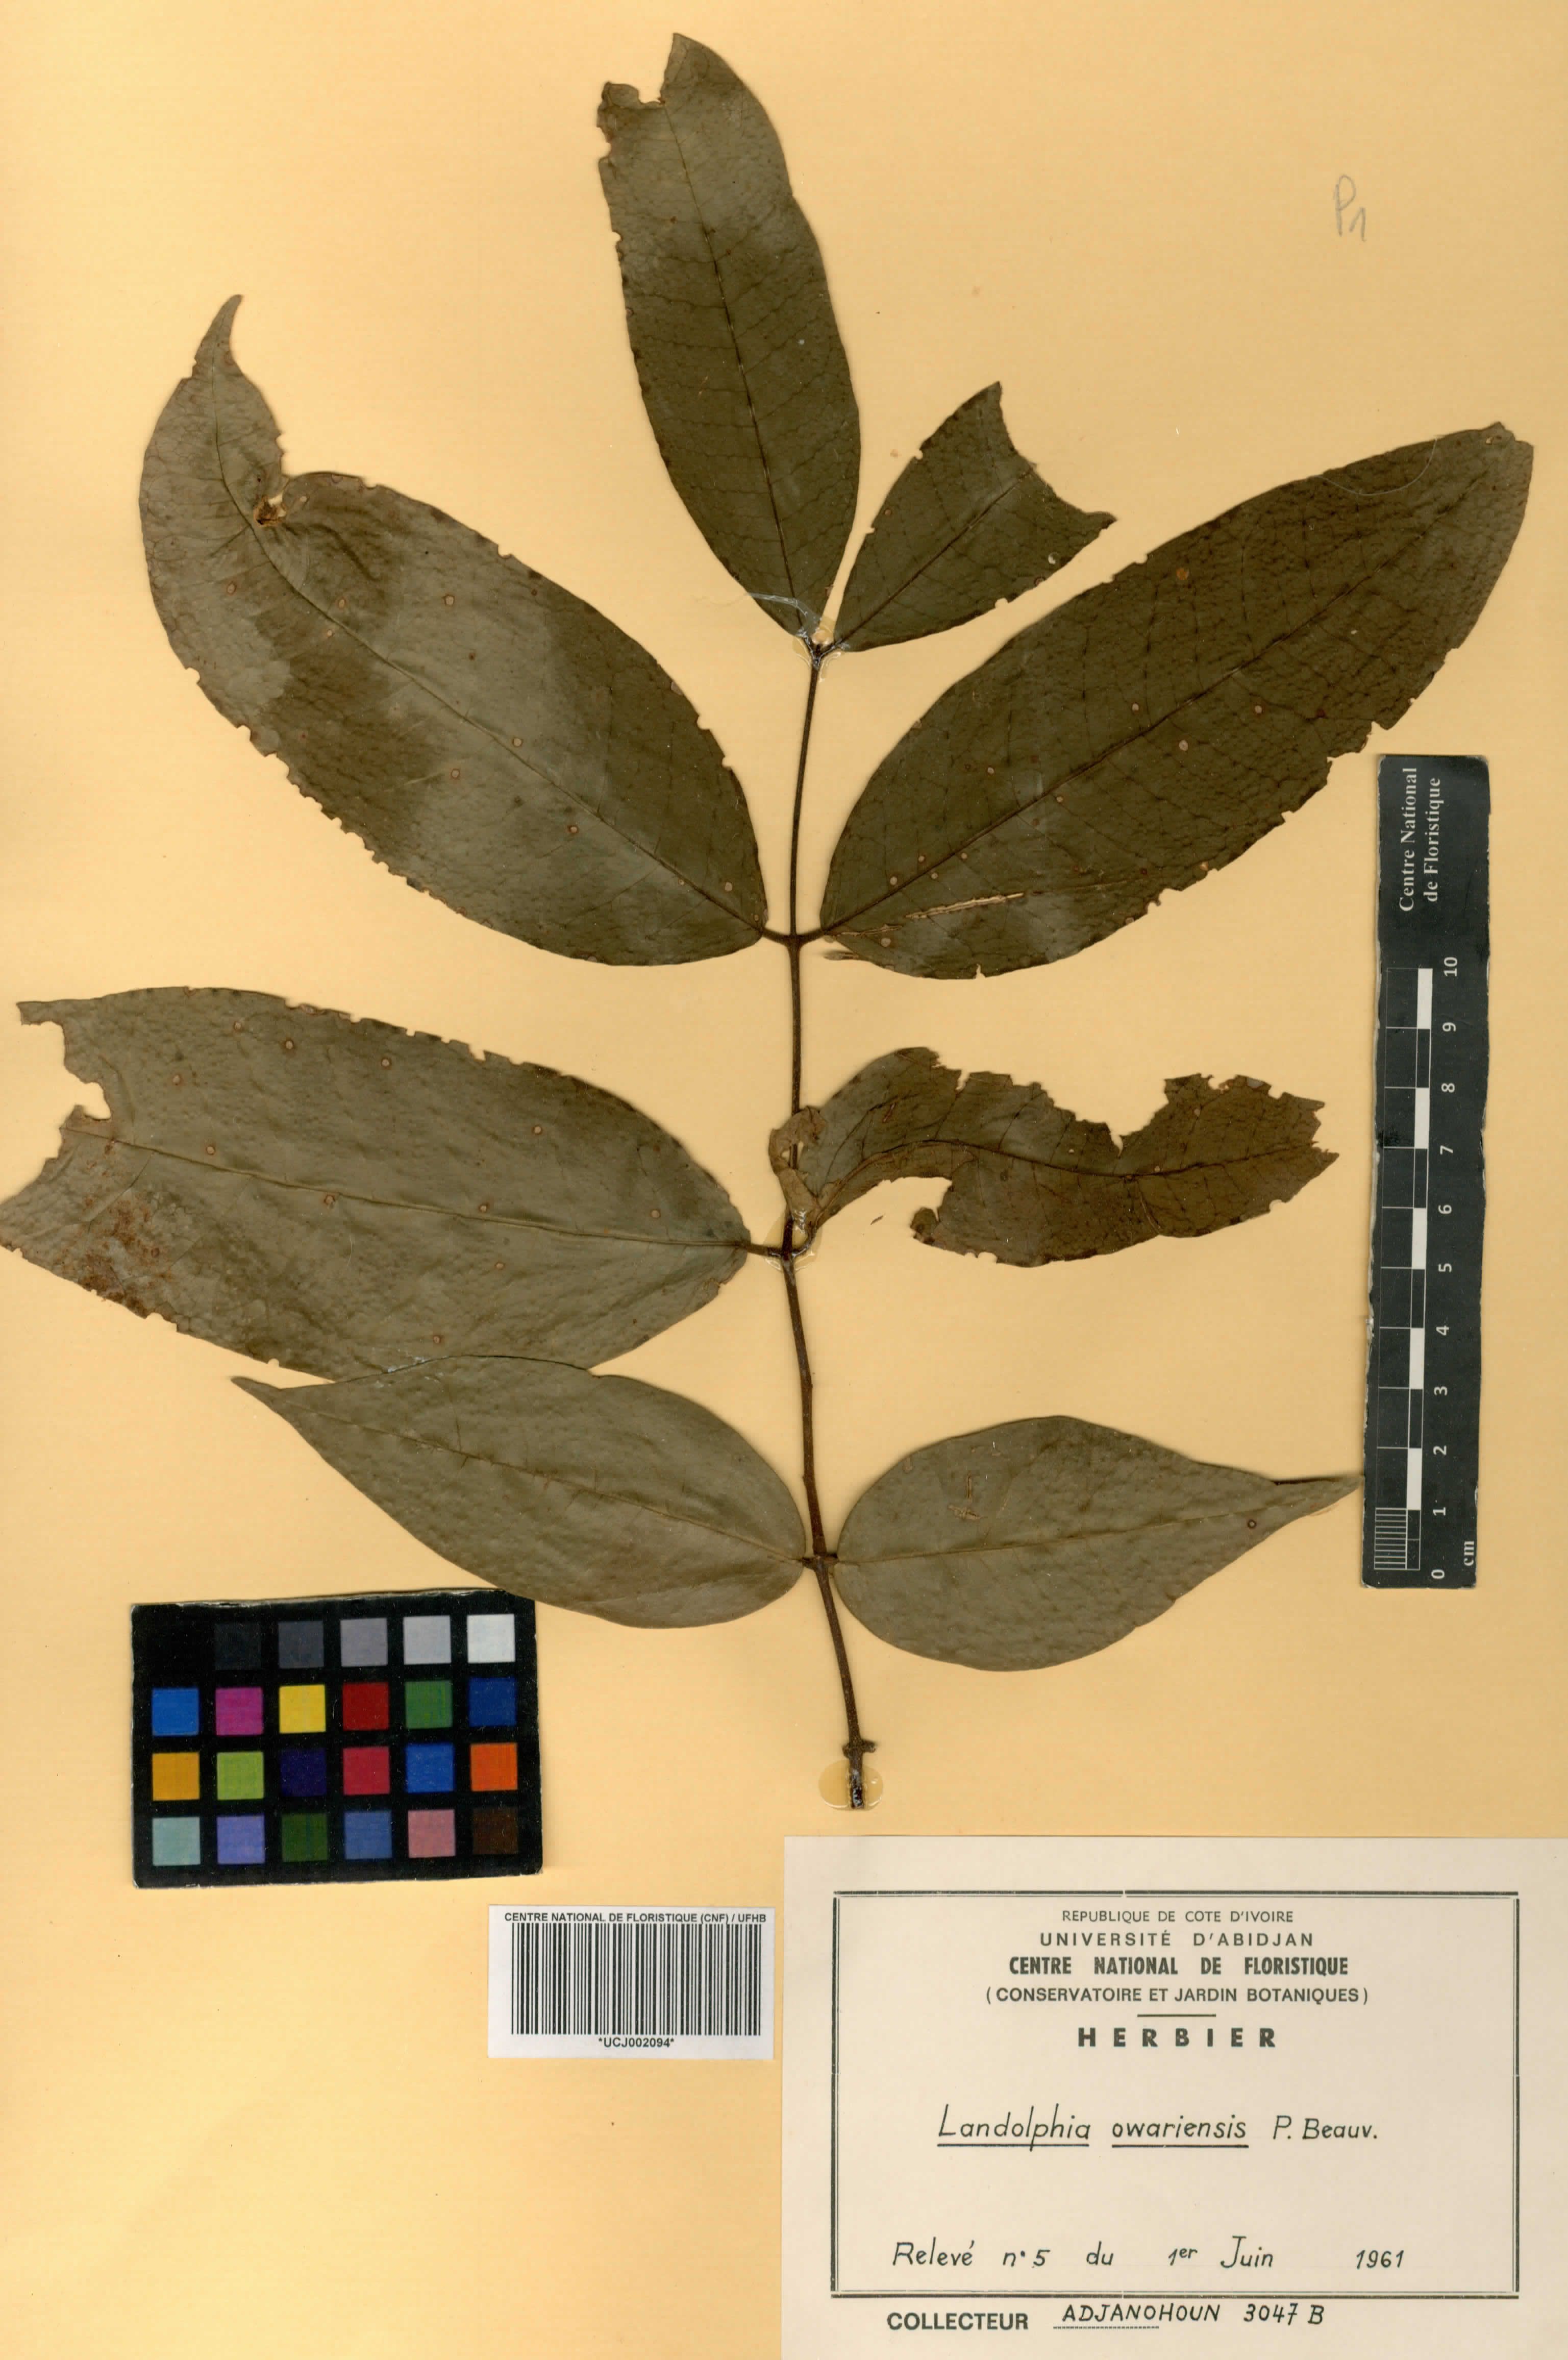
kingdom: Plantae
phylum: Tracheophyta
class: Magnoliopsida
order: Gentianales
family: Apocynaceae
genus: Landolphia
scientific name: Landolphia owariensis
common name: White-ball-rubber
